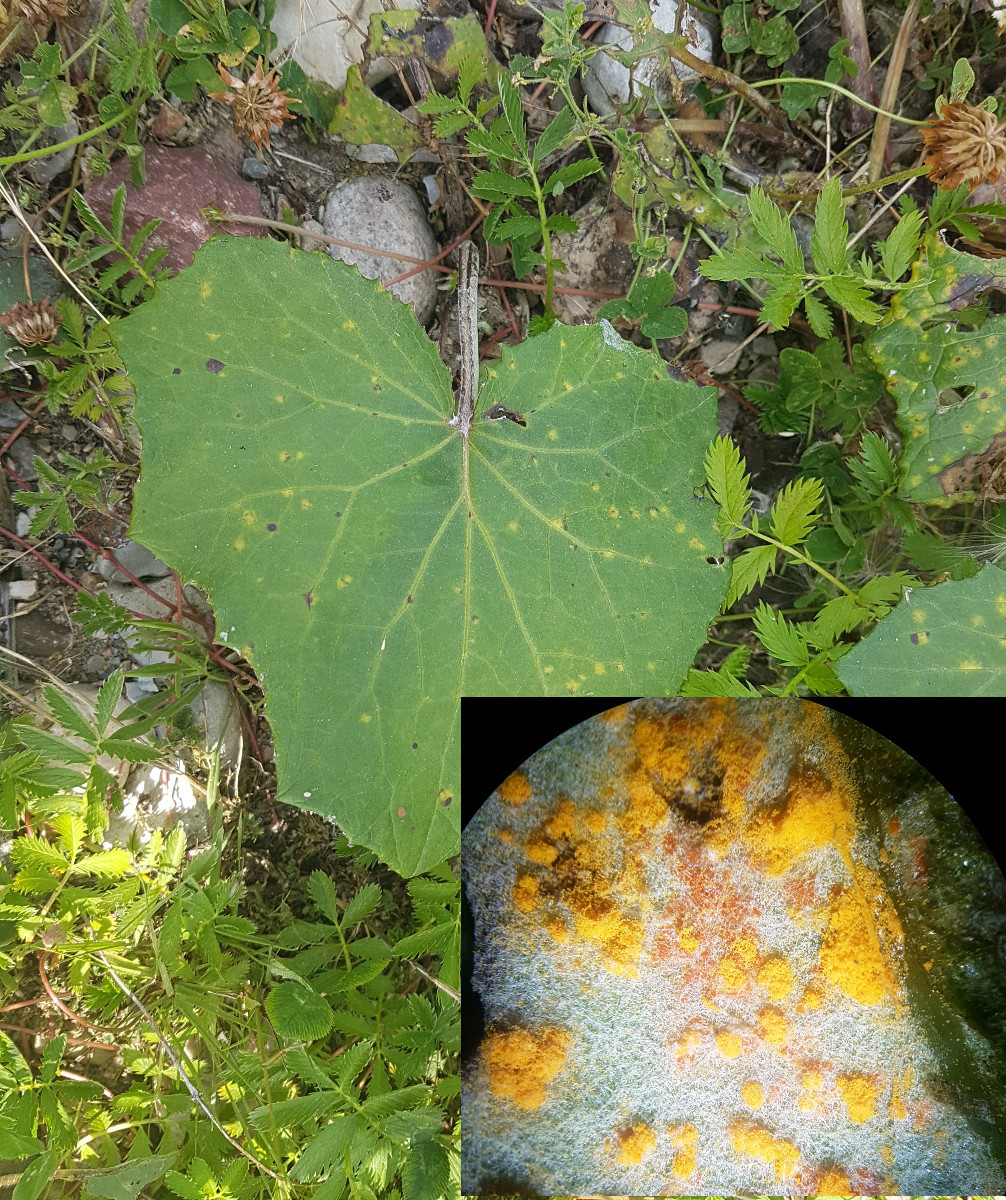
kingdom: Fungi
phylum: Basidiomycota
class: Pucciniomycetes
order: Pucciniales
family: Coleosporiaceae
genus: Coleosporium
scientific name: Coleosporium tussilaginis
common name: almindelig fyrrenålerust
